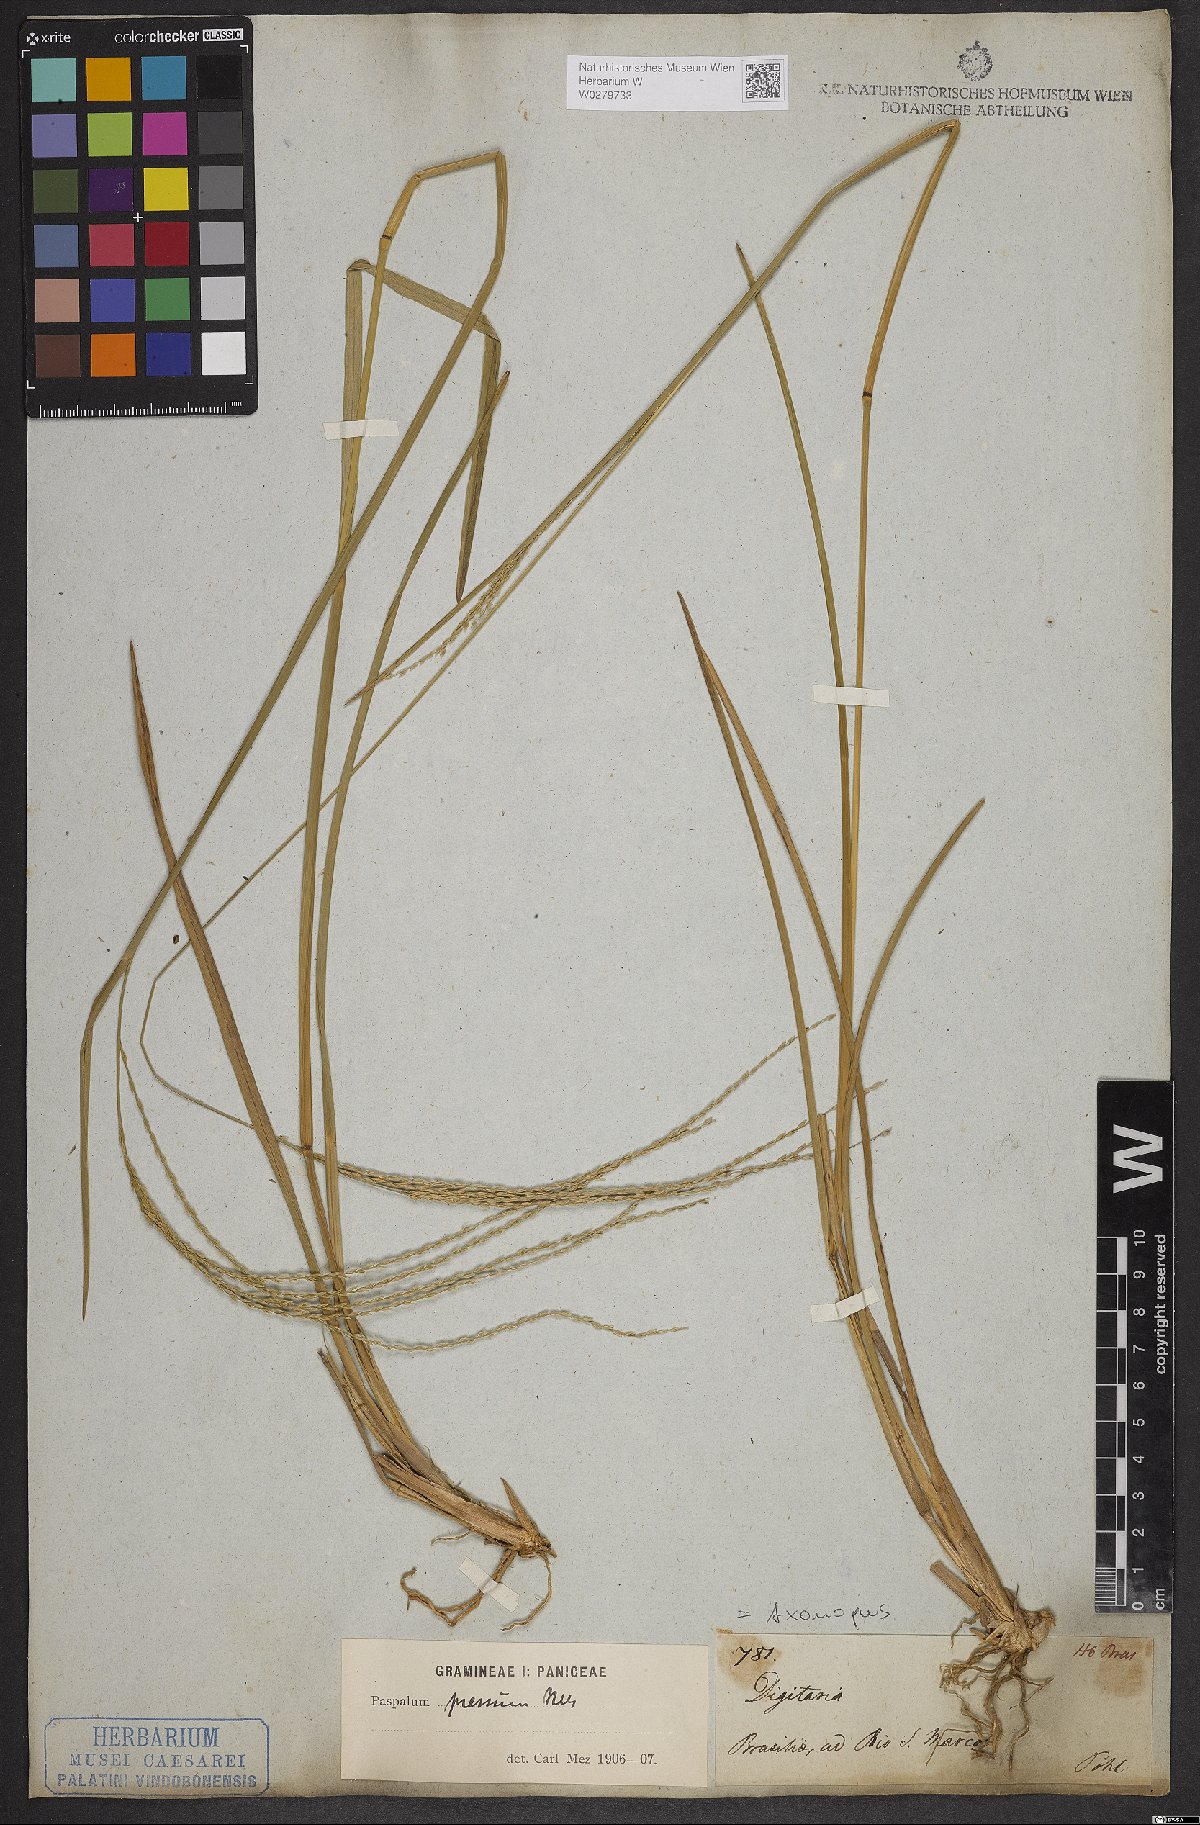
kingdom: Plantae
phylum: Tracheophyta
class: Liliopsida
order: Poales
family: Poaceae
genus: Axonopus
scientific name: Axonopus pressus
